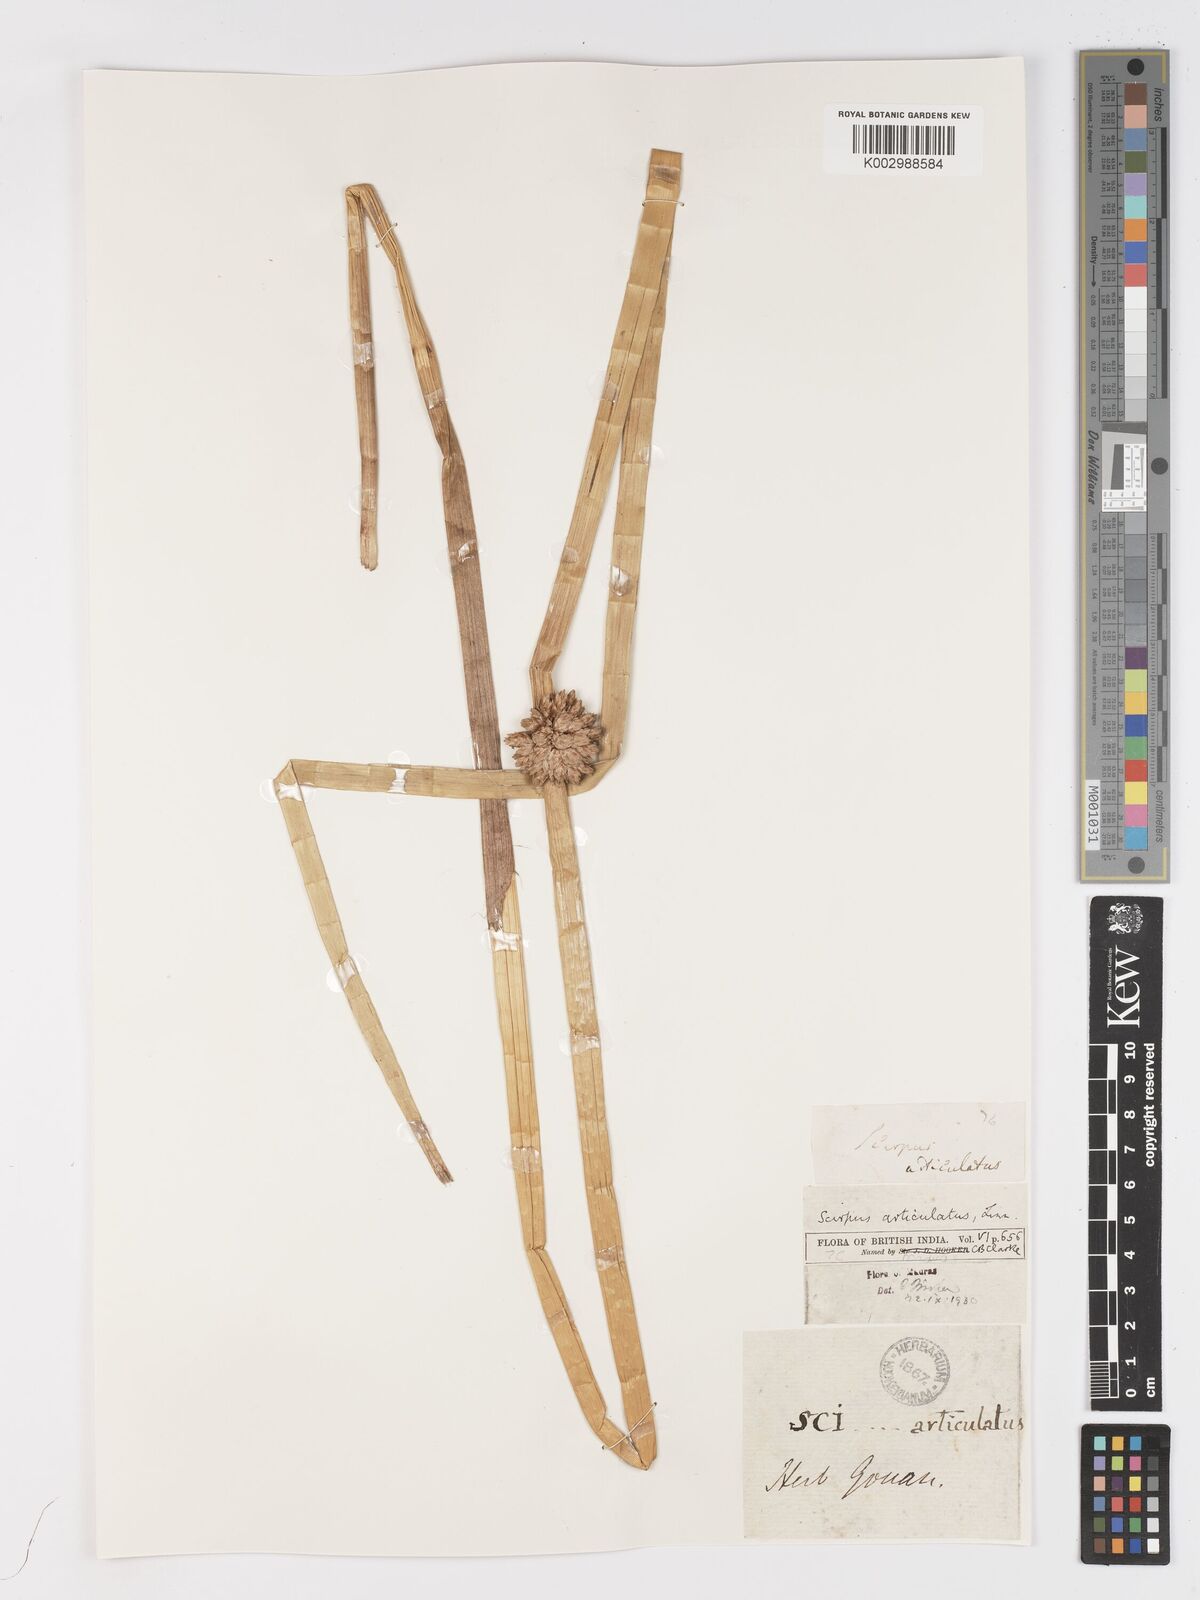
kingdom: Plantae
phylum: Tracheophyta
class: Liliopsida
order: Poales
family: Cyperaceae
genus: Schoenoplectiella
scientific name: Schoenoplectiella articulata
